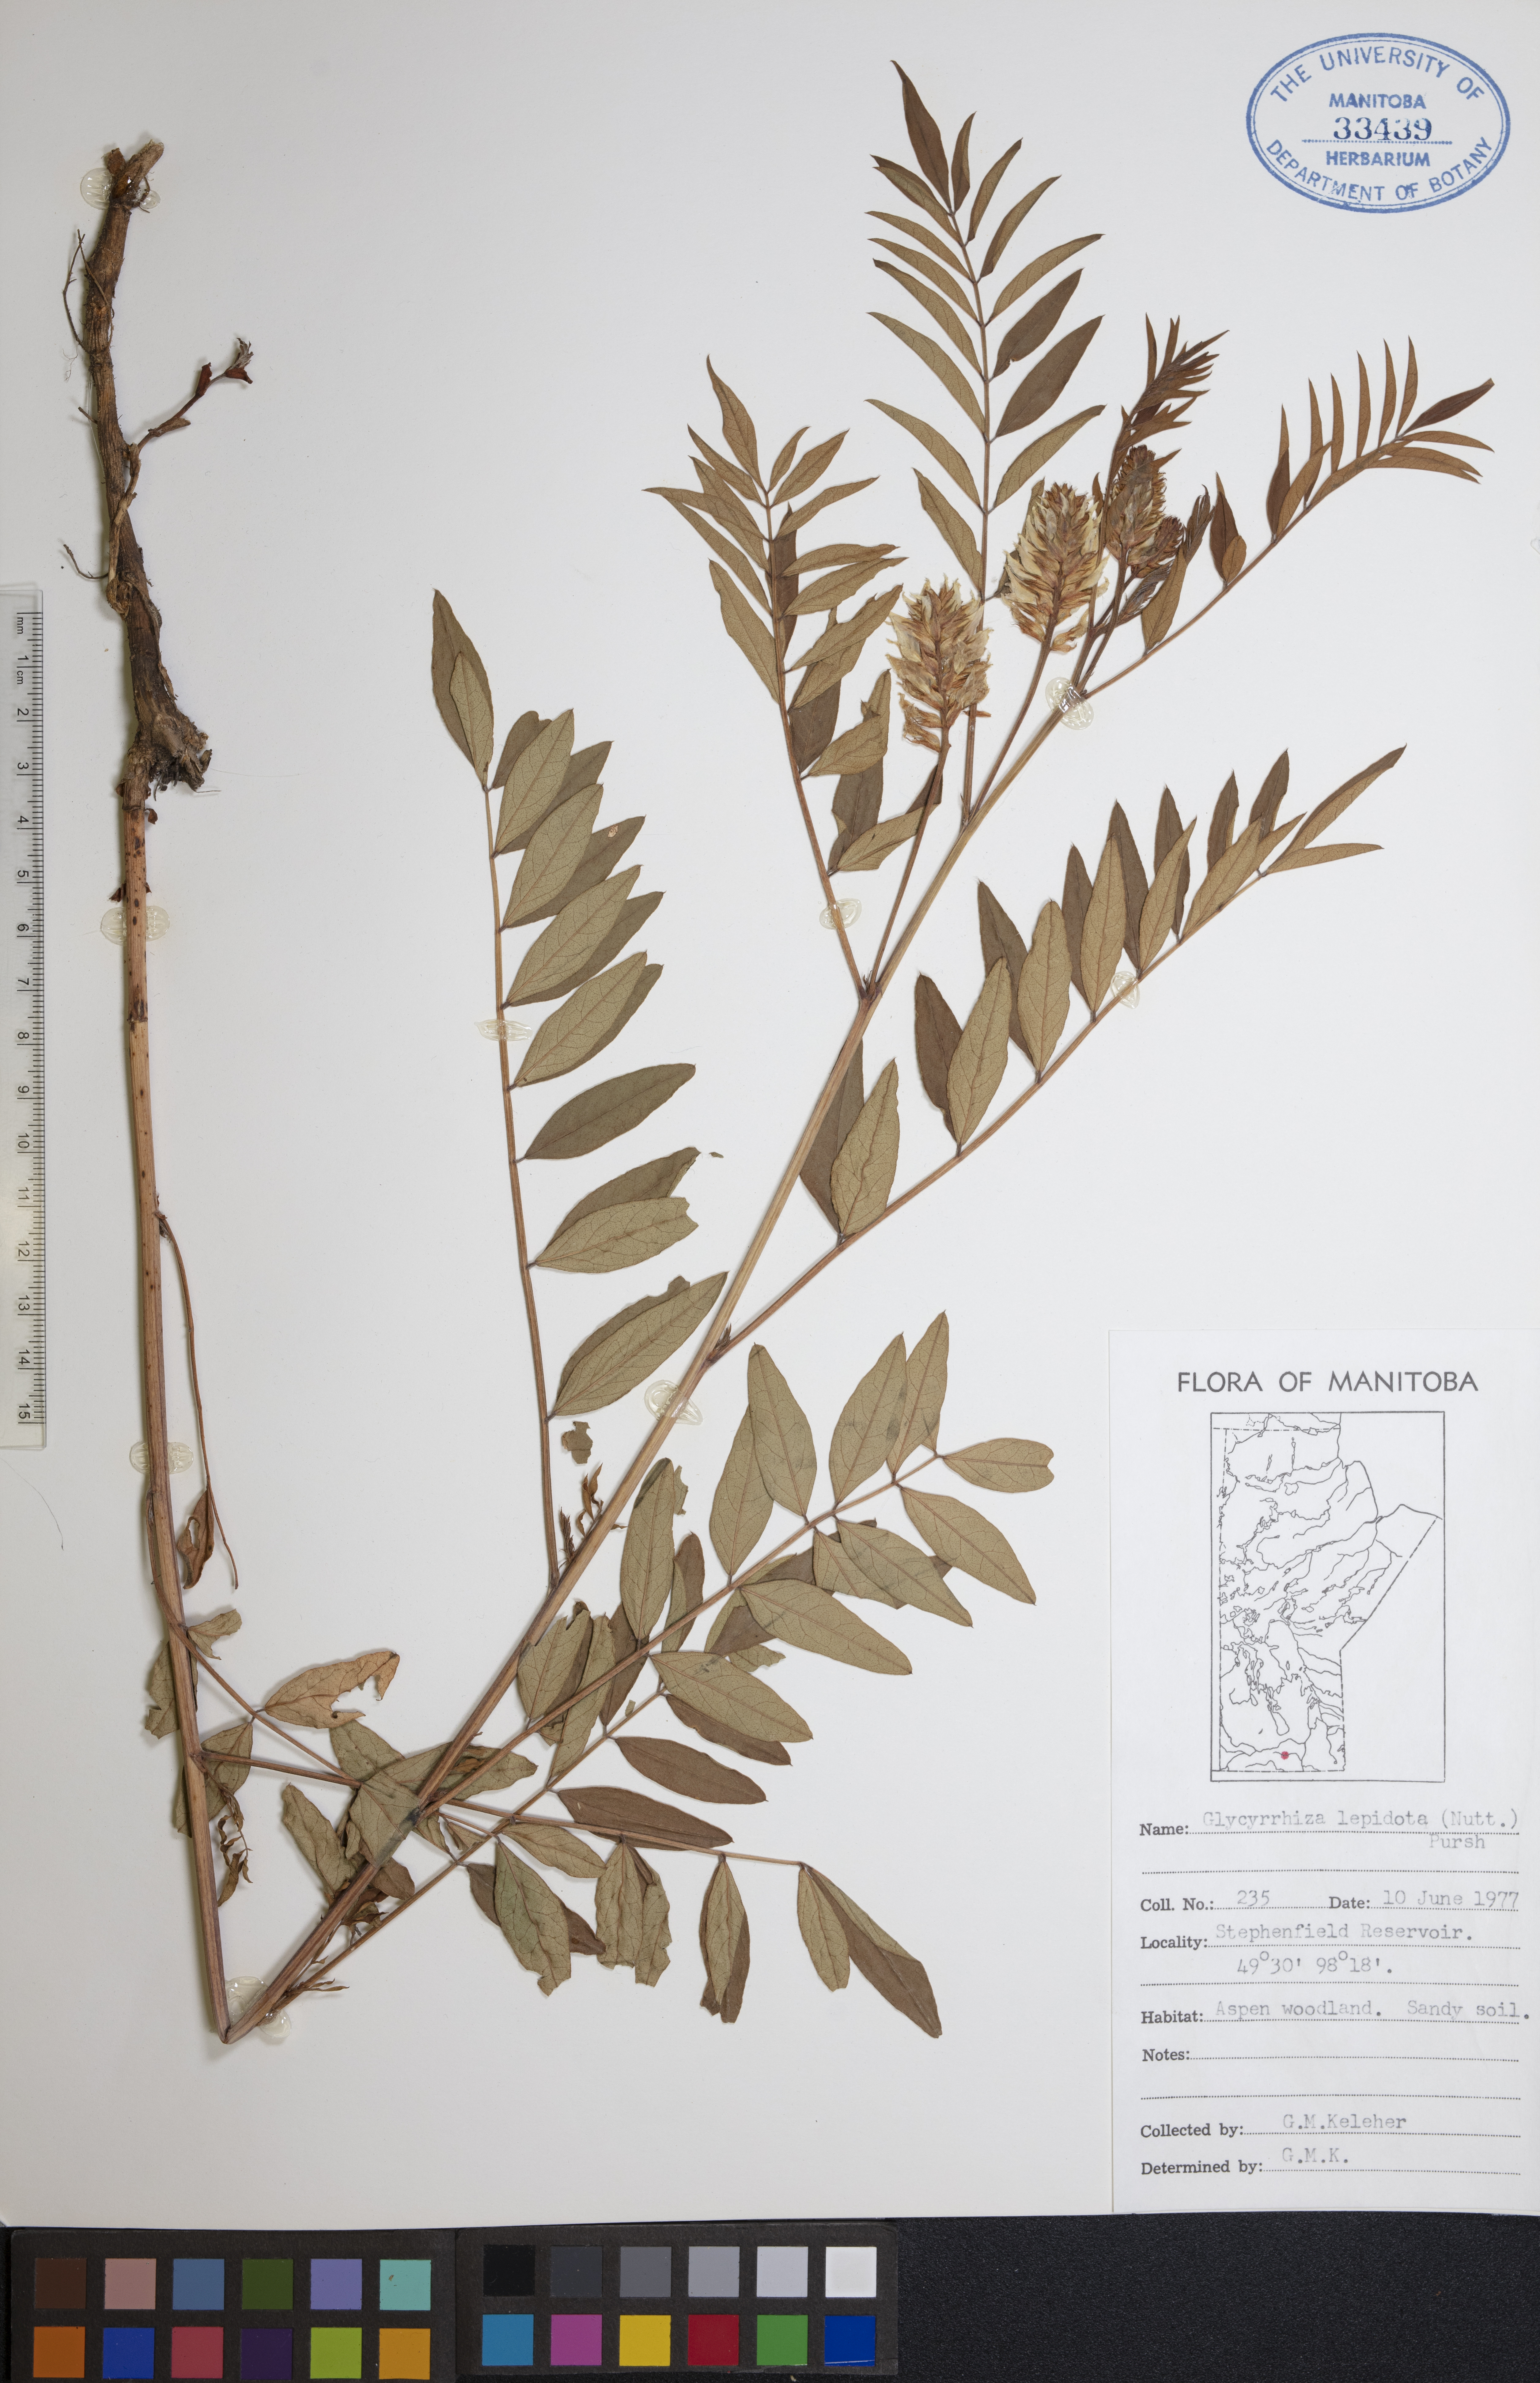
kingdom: Plantae
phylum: Tracheophyta
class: Magnoliopsida
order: Fabales
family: Fabaceae
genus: Glycyrrhiza
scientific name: Glycyrrhiza lepidota
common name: American liquorice
